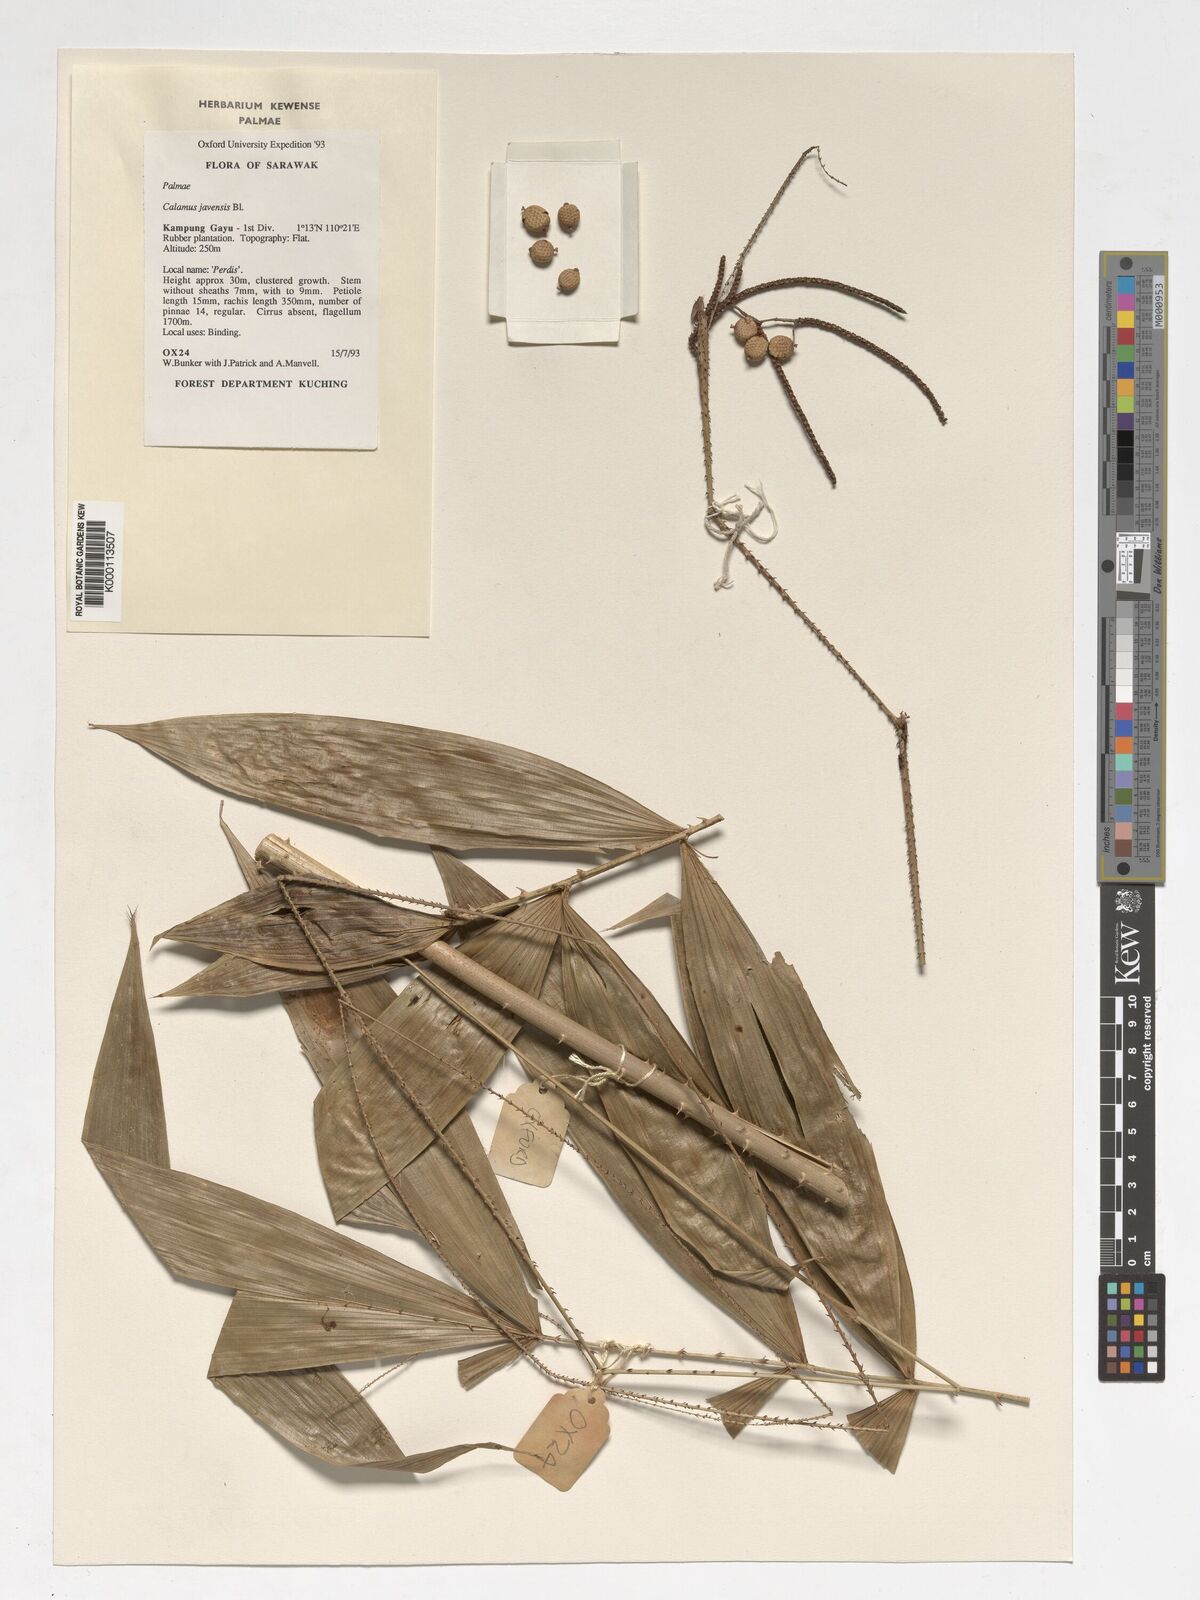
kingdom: Plantae
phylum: Tracheophyta
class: Liliopsida
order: Arecales
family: Arecaceae
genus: Calamus
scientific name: Calamus javensis
